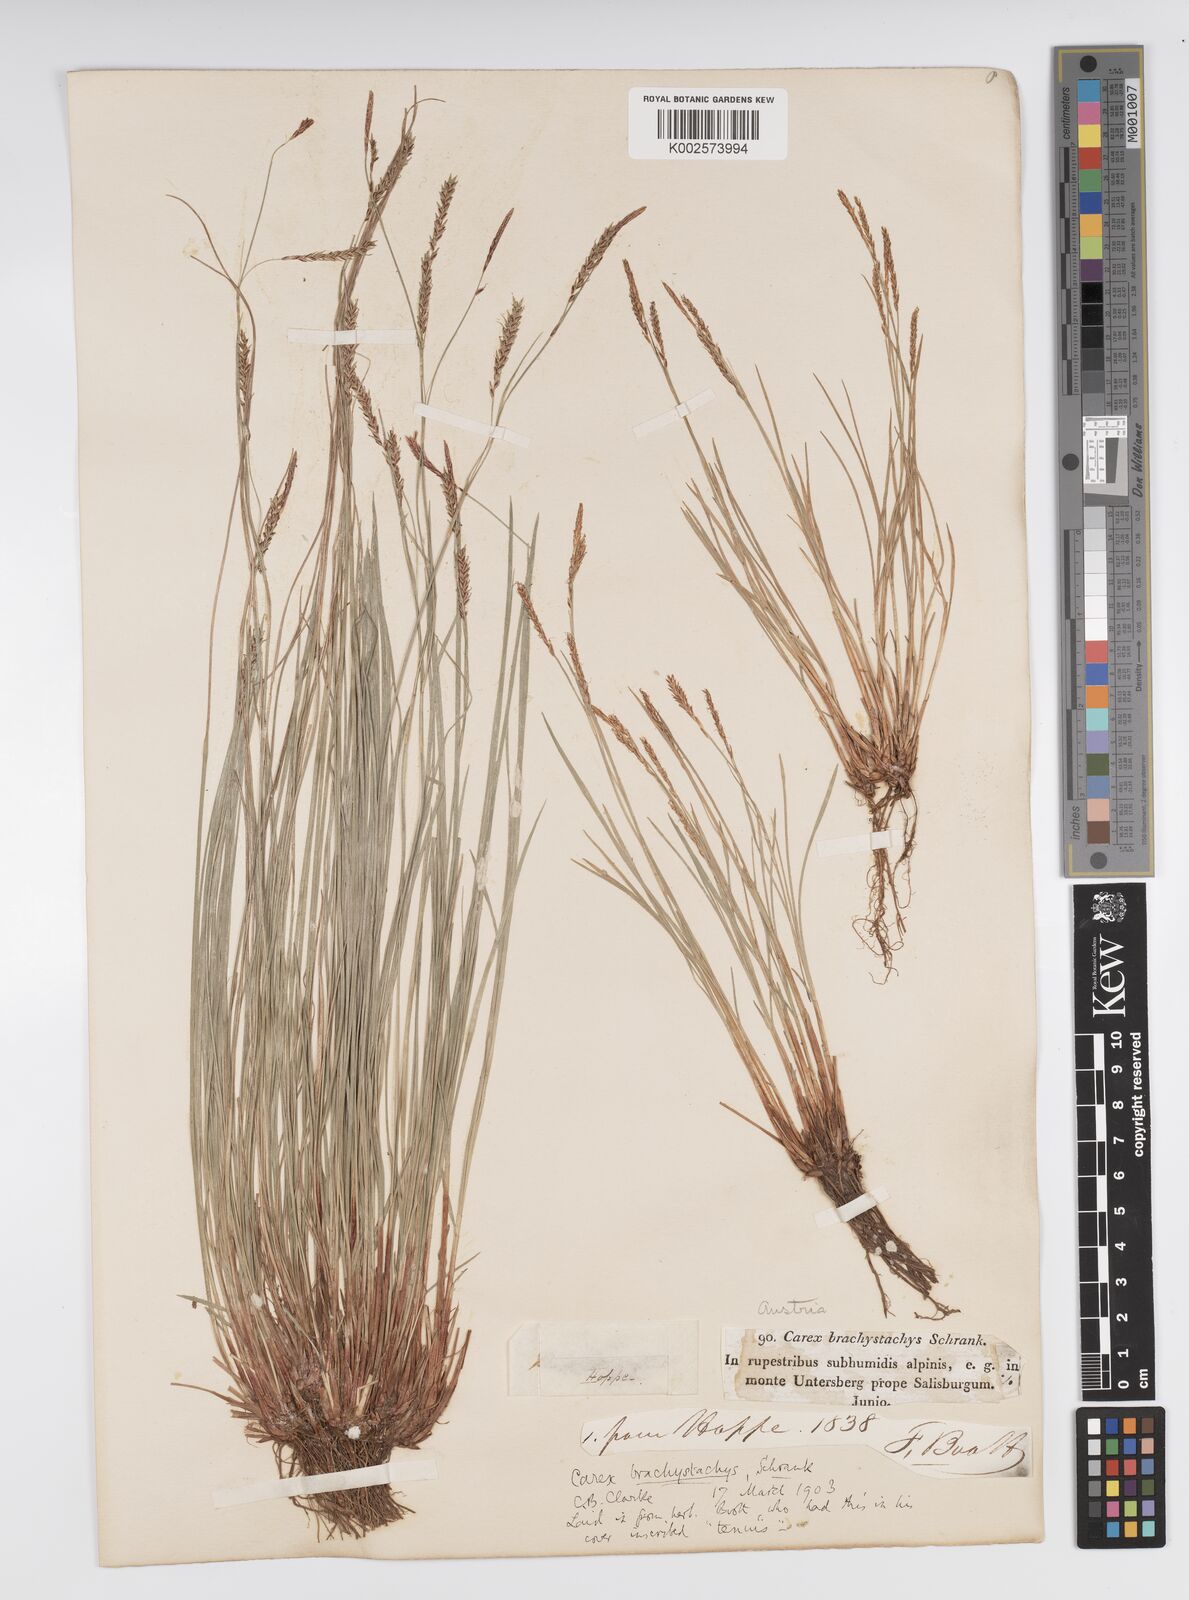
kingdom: Plantae
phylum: Tracheophyta
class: Liliopsida
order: Poales
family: Cyperaceae
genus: Carex
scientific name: Carex brachystachys
